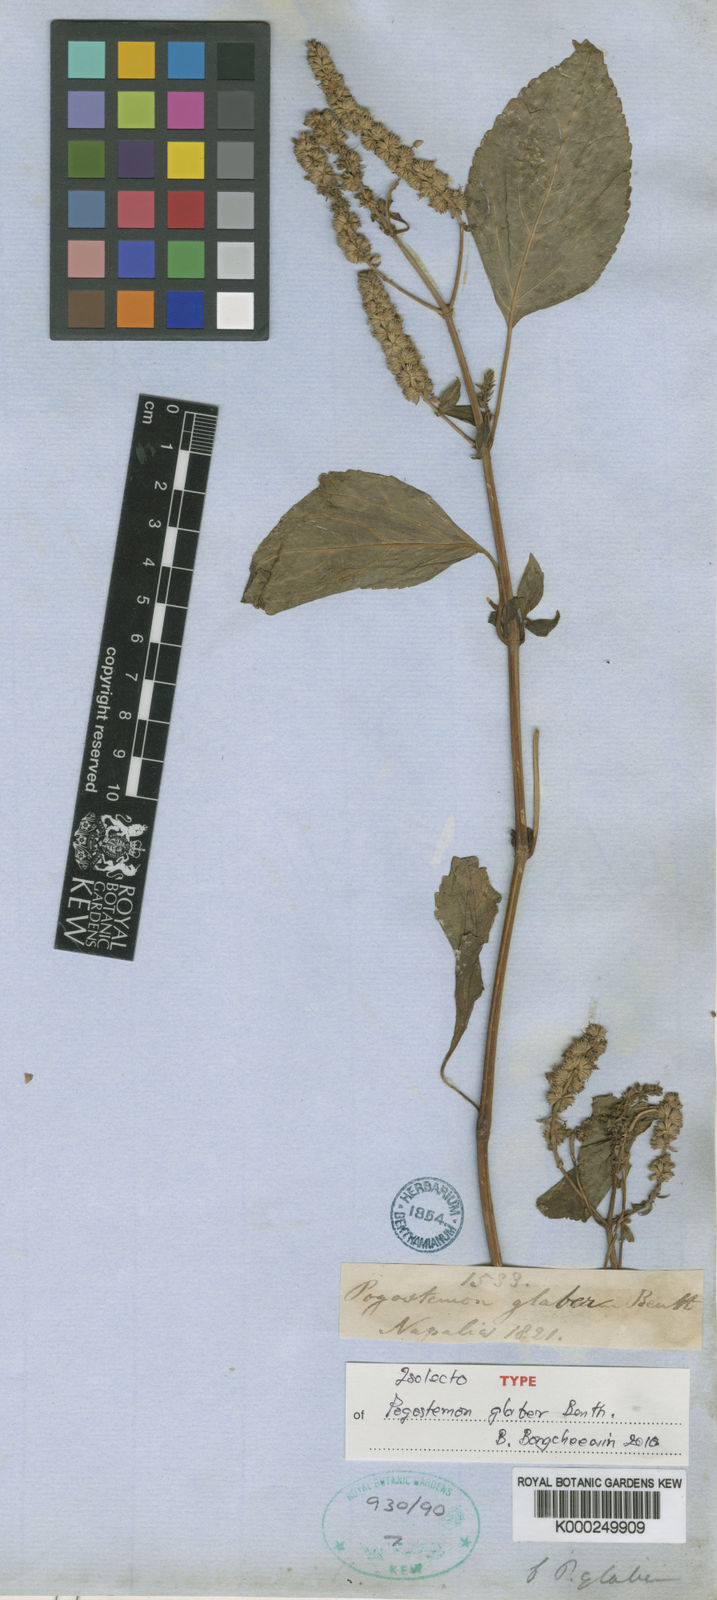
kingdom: Plantae
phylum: Tracheophyta
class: Magnoliopsida
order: Lamiales
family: Lamiaceae
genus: Pogostemon
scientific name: Pogostemon glaber
